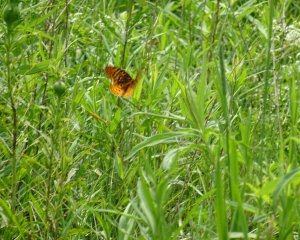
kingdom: Animalia
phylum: Arthropoda
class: Insecta
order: Lepidoptera
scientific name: Lepidoptera
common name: Butterflies
